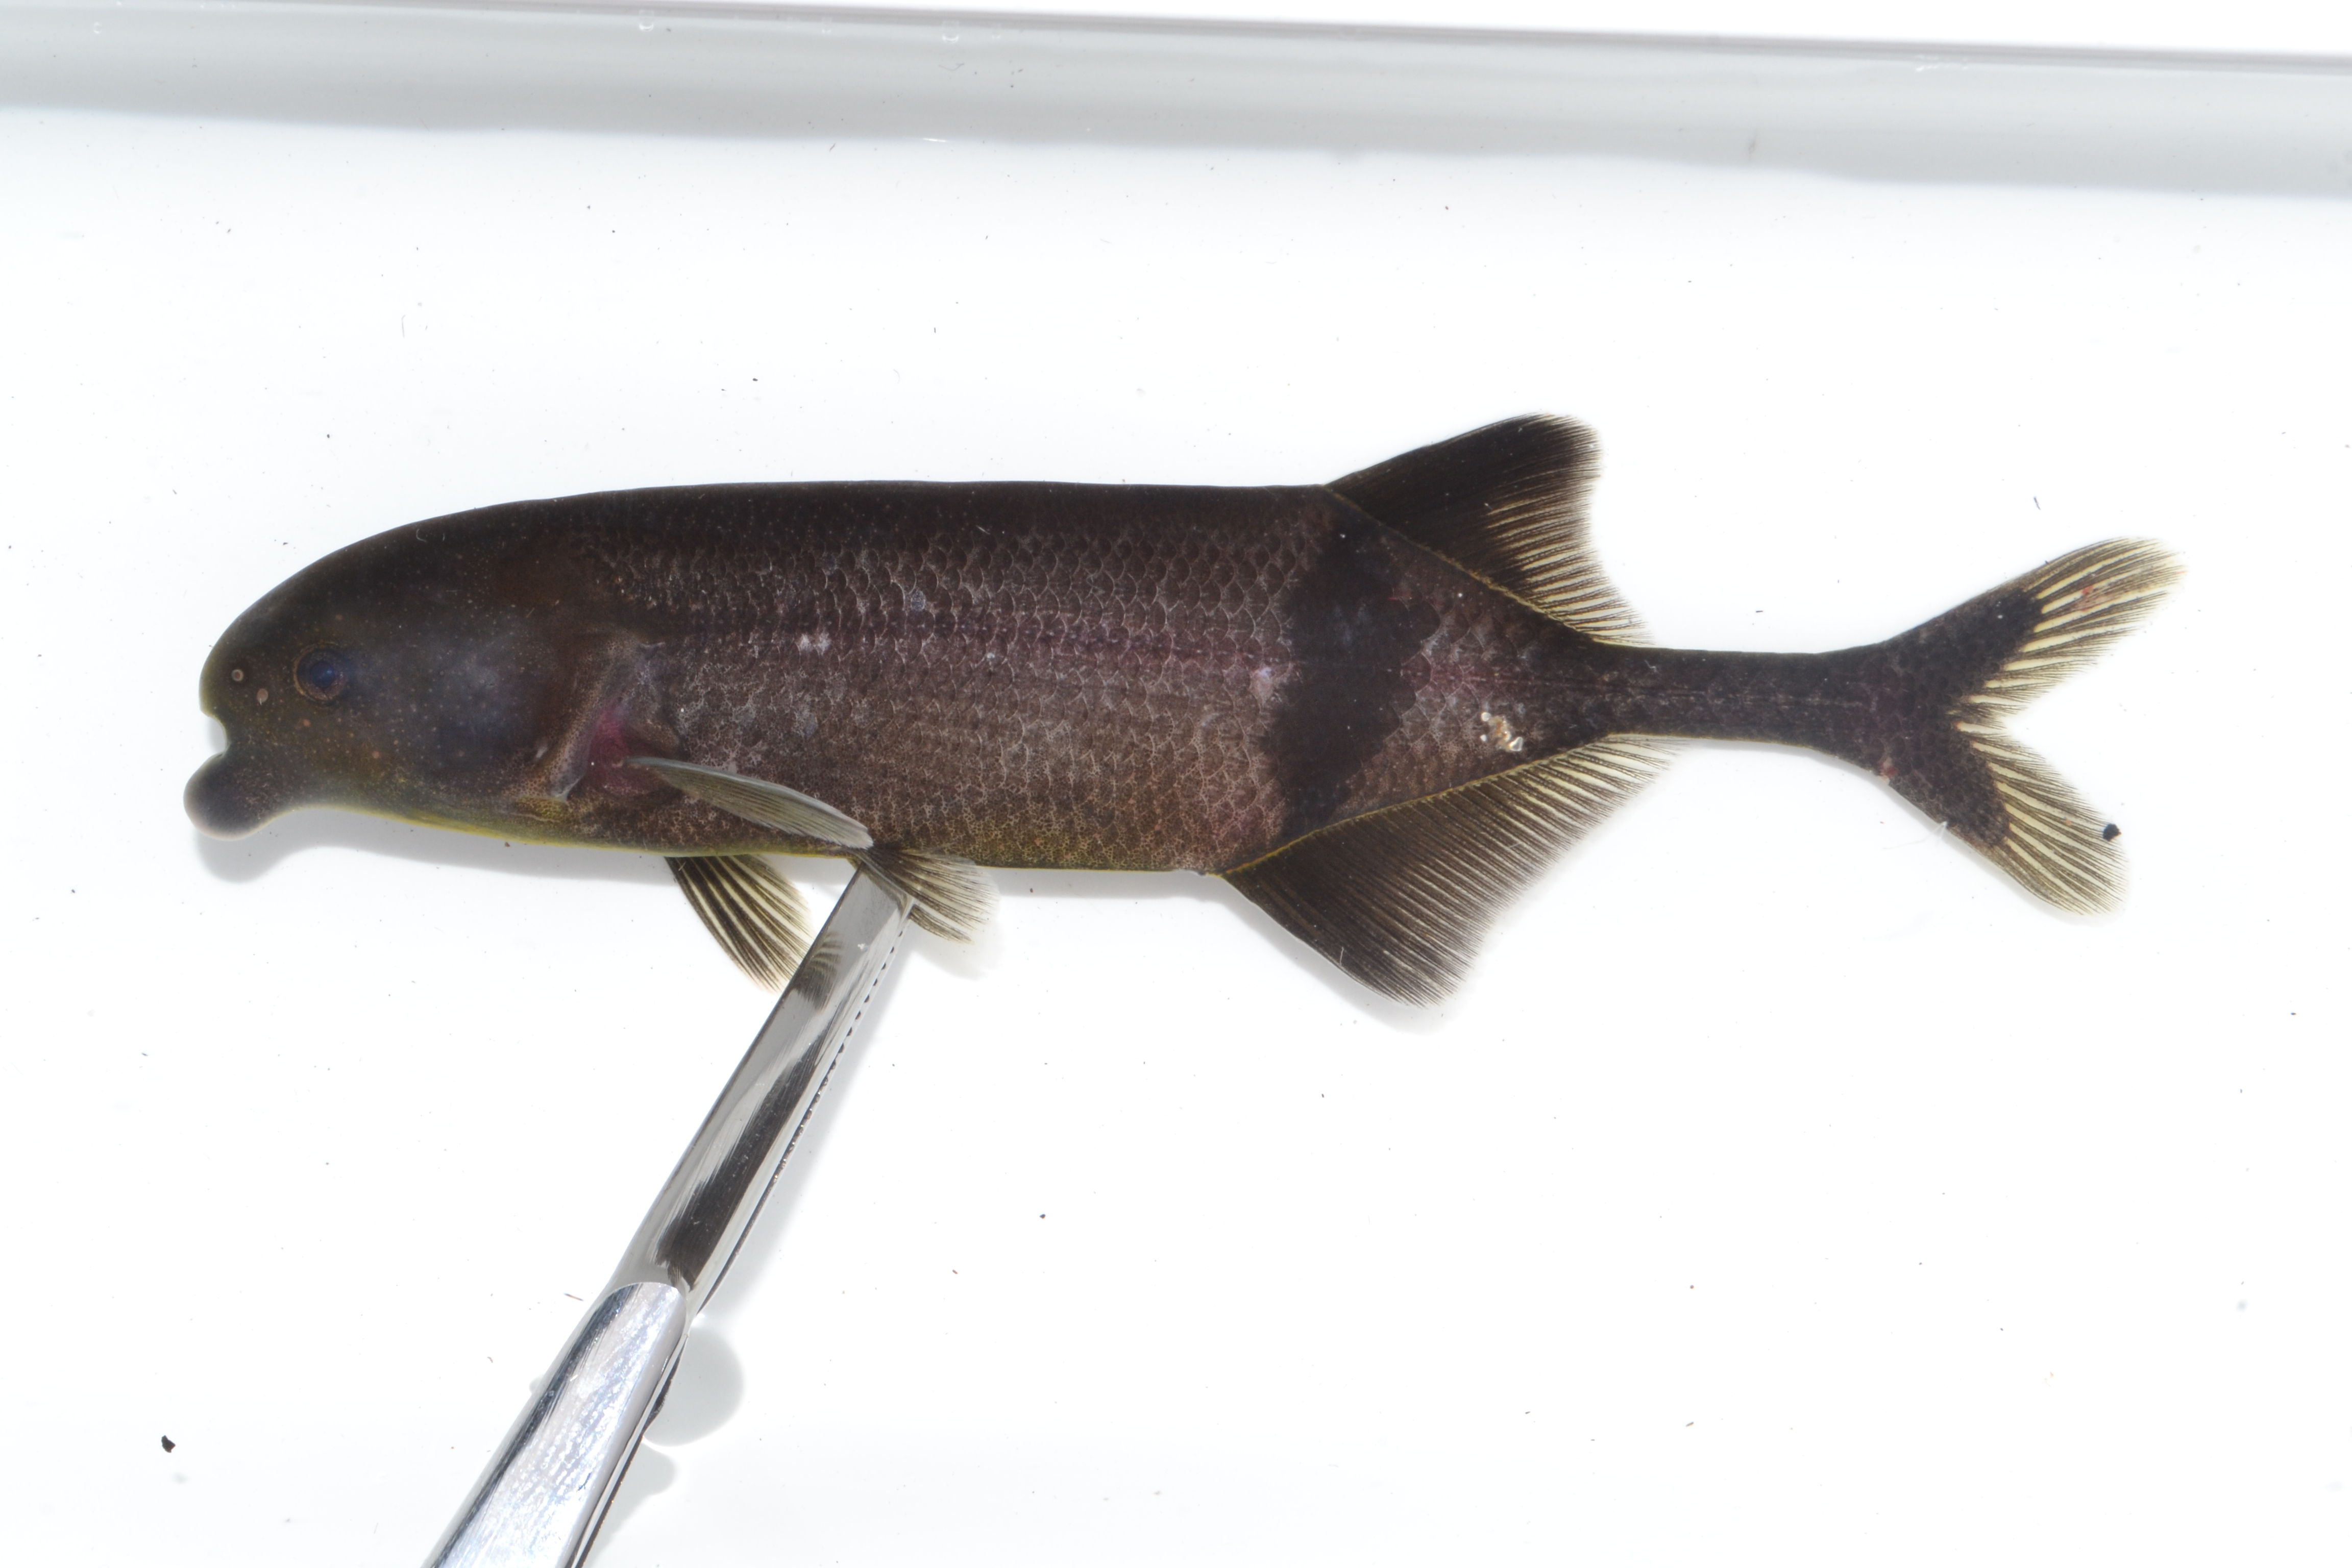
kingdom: Animalia
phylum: Chordata
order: Osteoglossiformes
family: Mormyridae
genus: Marcusenius
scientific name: Marcusenius
